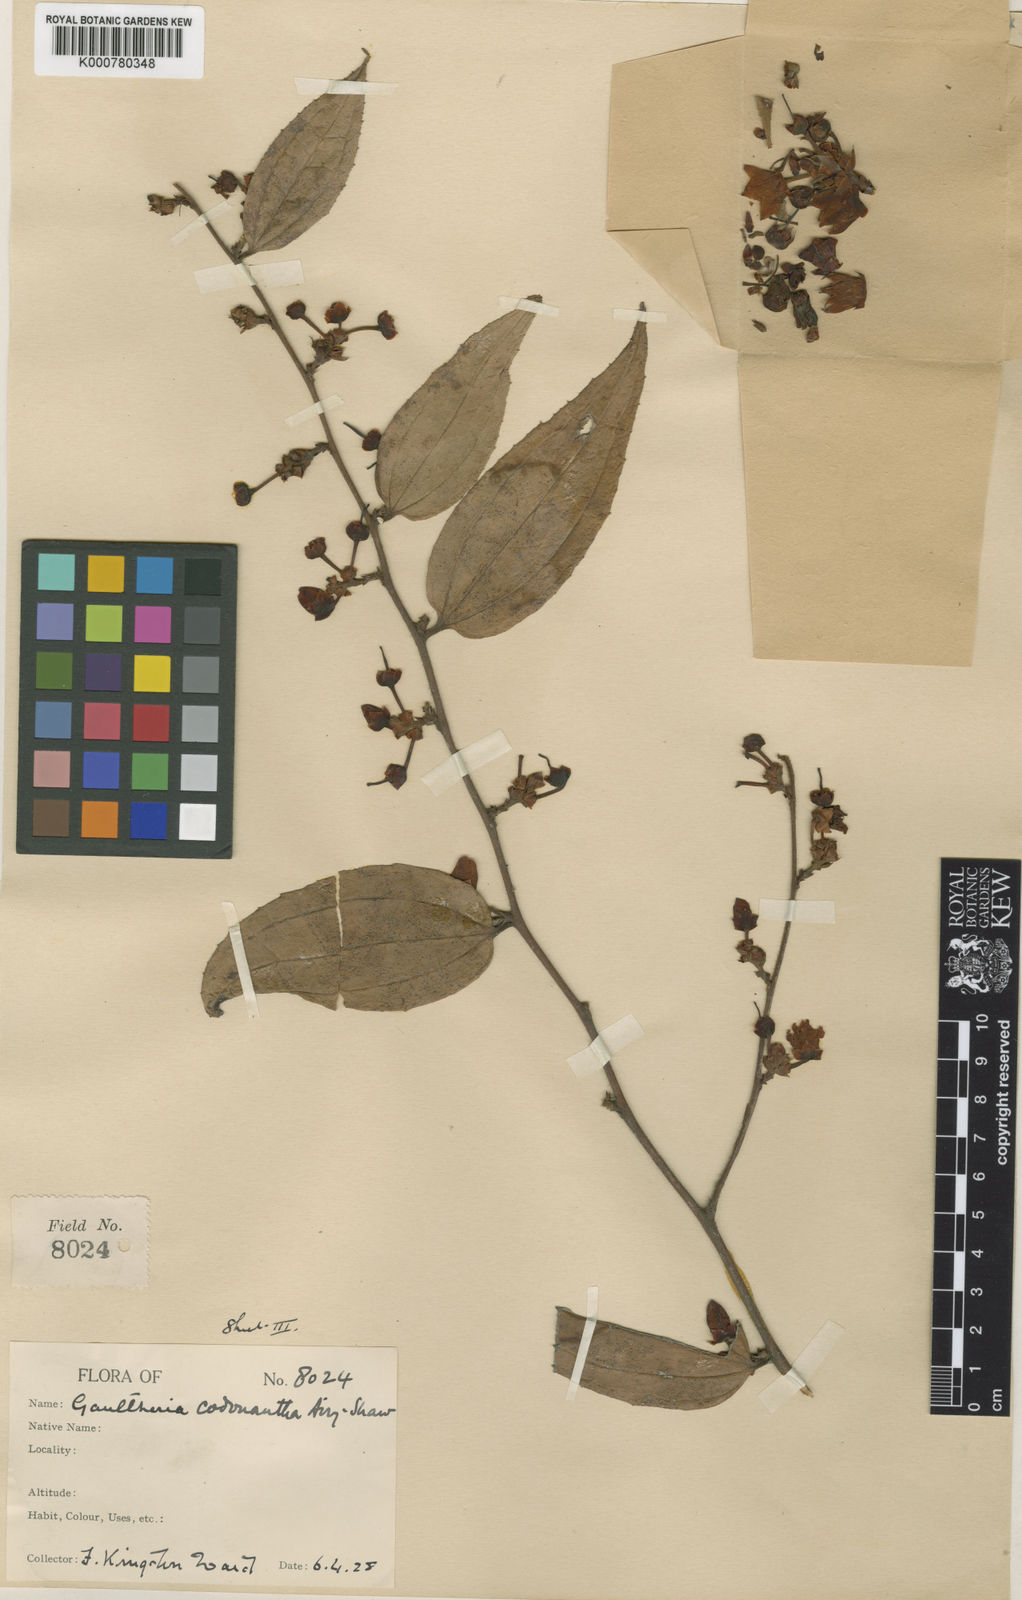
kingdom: Plantae
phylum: Tracheophyta
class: Magnoliopsida
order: Ericales
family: Ericaceae
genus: Gaultheria
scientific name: Gaultheria codonantha
